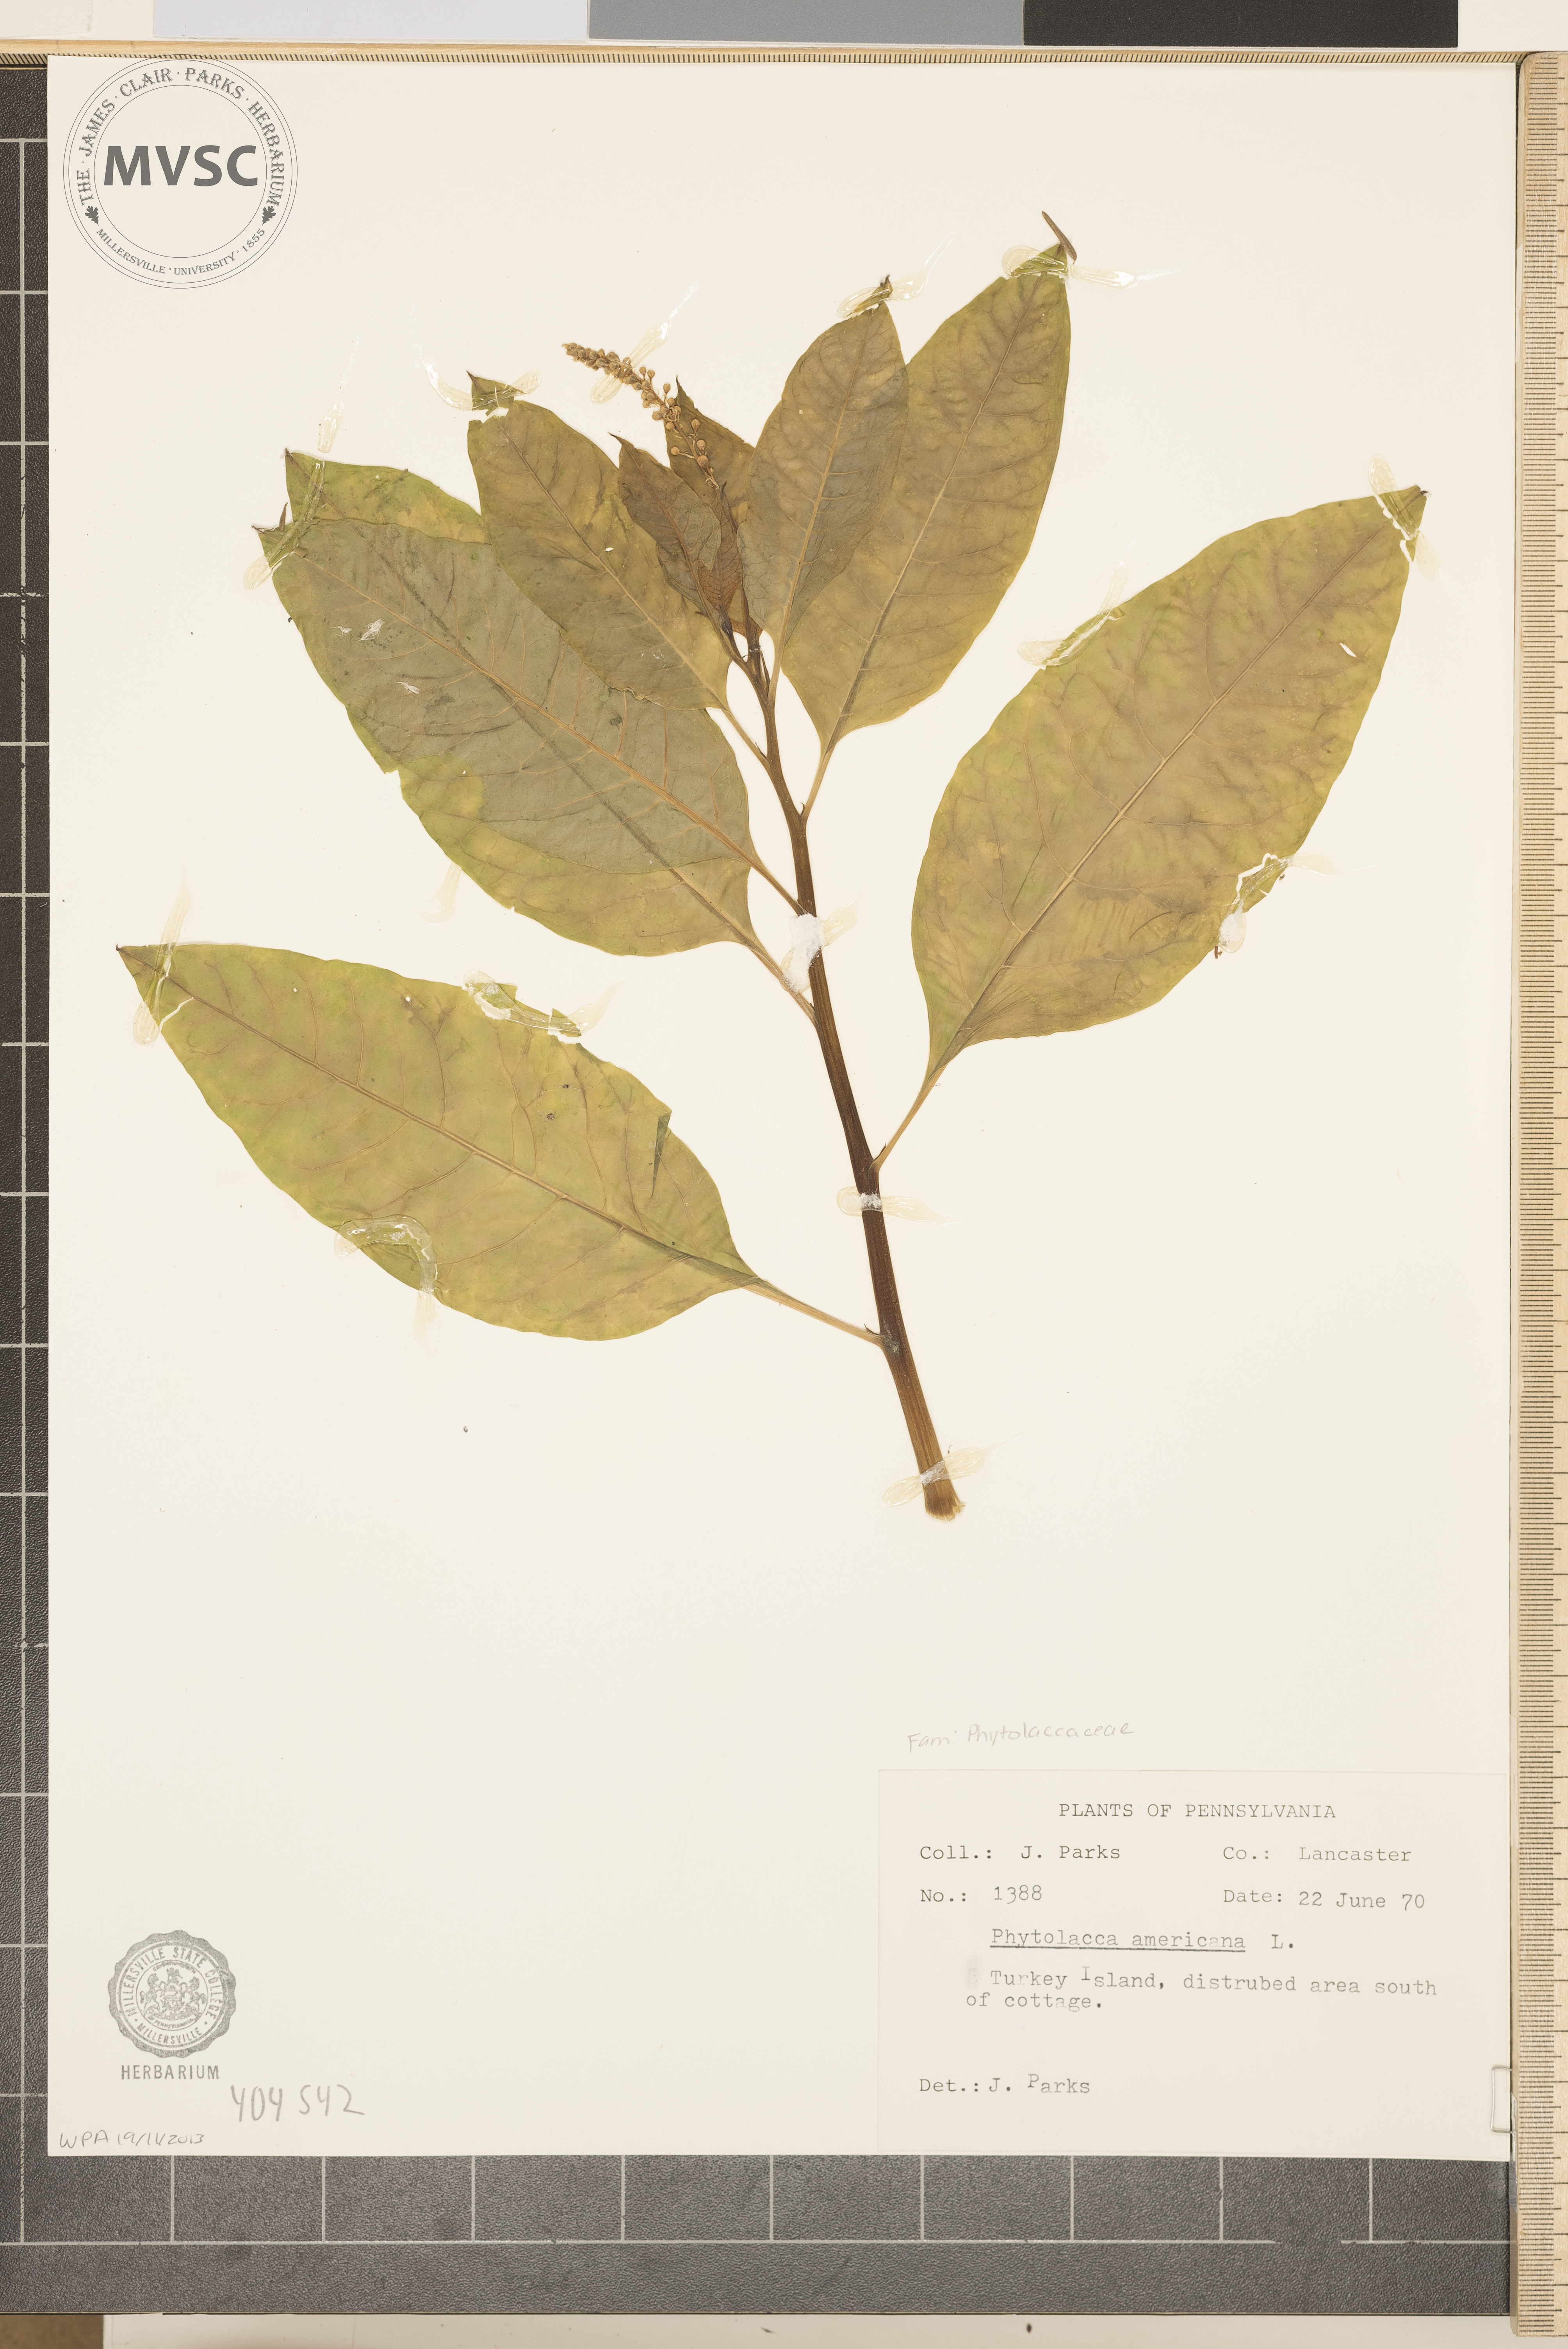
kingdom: Plantae
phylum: Tracheophyta
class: Magnoliopsida
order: Caryophyllales
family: Phytolaccaceae
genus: Phytolacca
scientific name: Phytolacca americana
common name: American pokeweed
